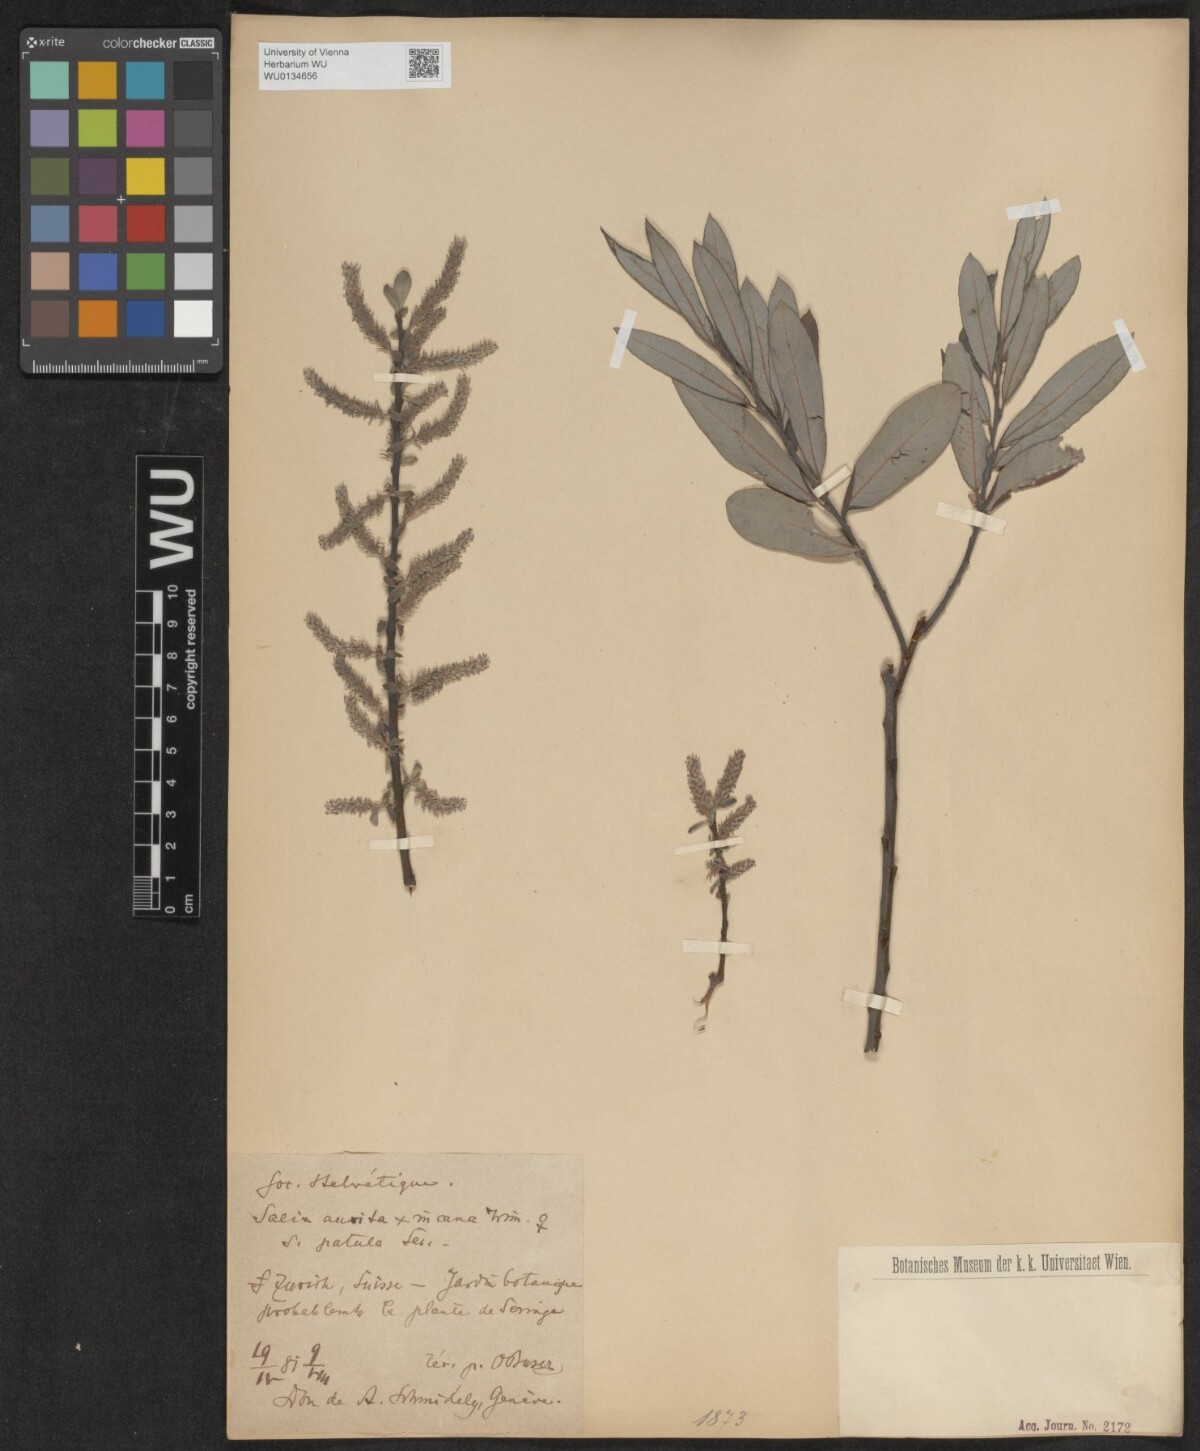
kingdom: Plantae
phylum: Tracheophyta
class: Magnoliopsida
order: Malpighiales
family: Salicaceae
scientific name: Salicaceae
